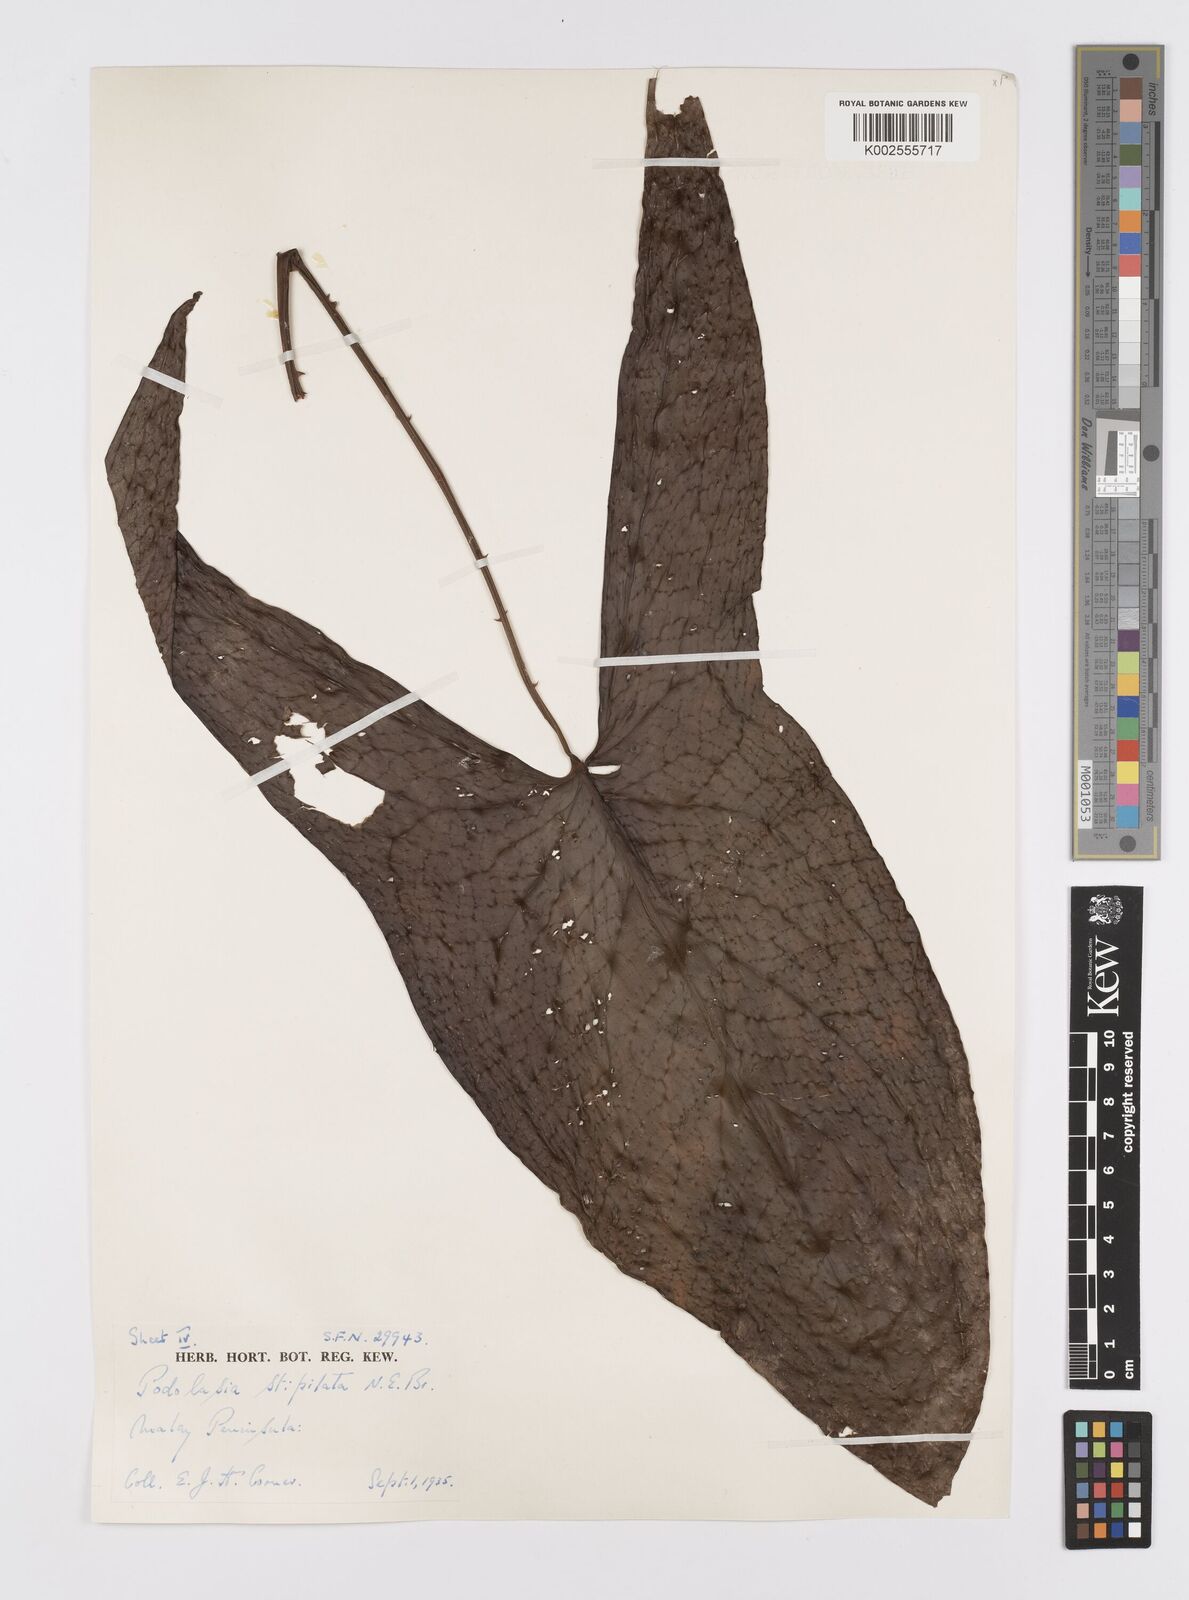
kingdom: Plantae
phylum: Tracheophyta
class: Liliopsida
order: Alismatales
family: Araceae
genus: Podolasia
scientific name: Podolasia stipitata
